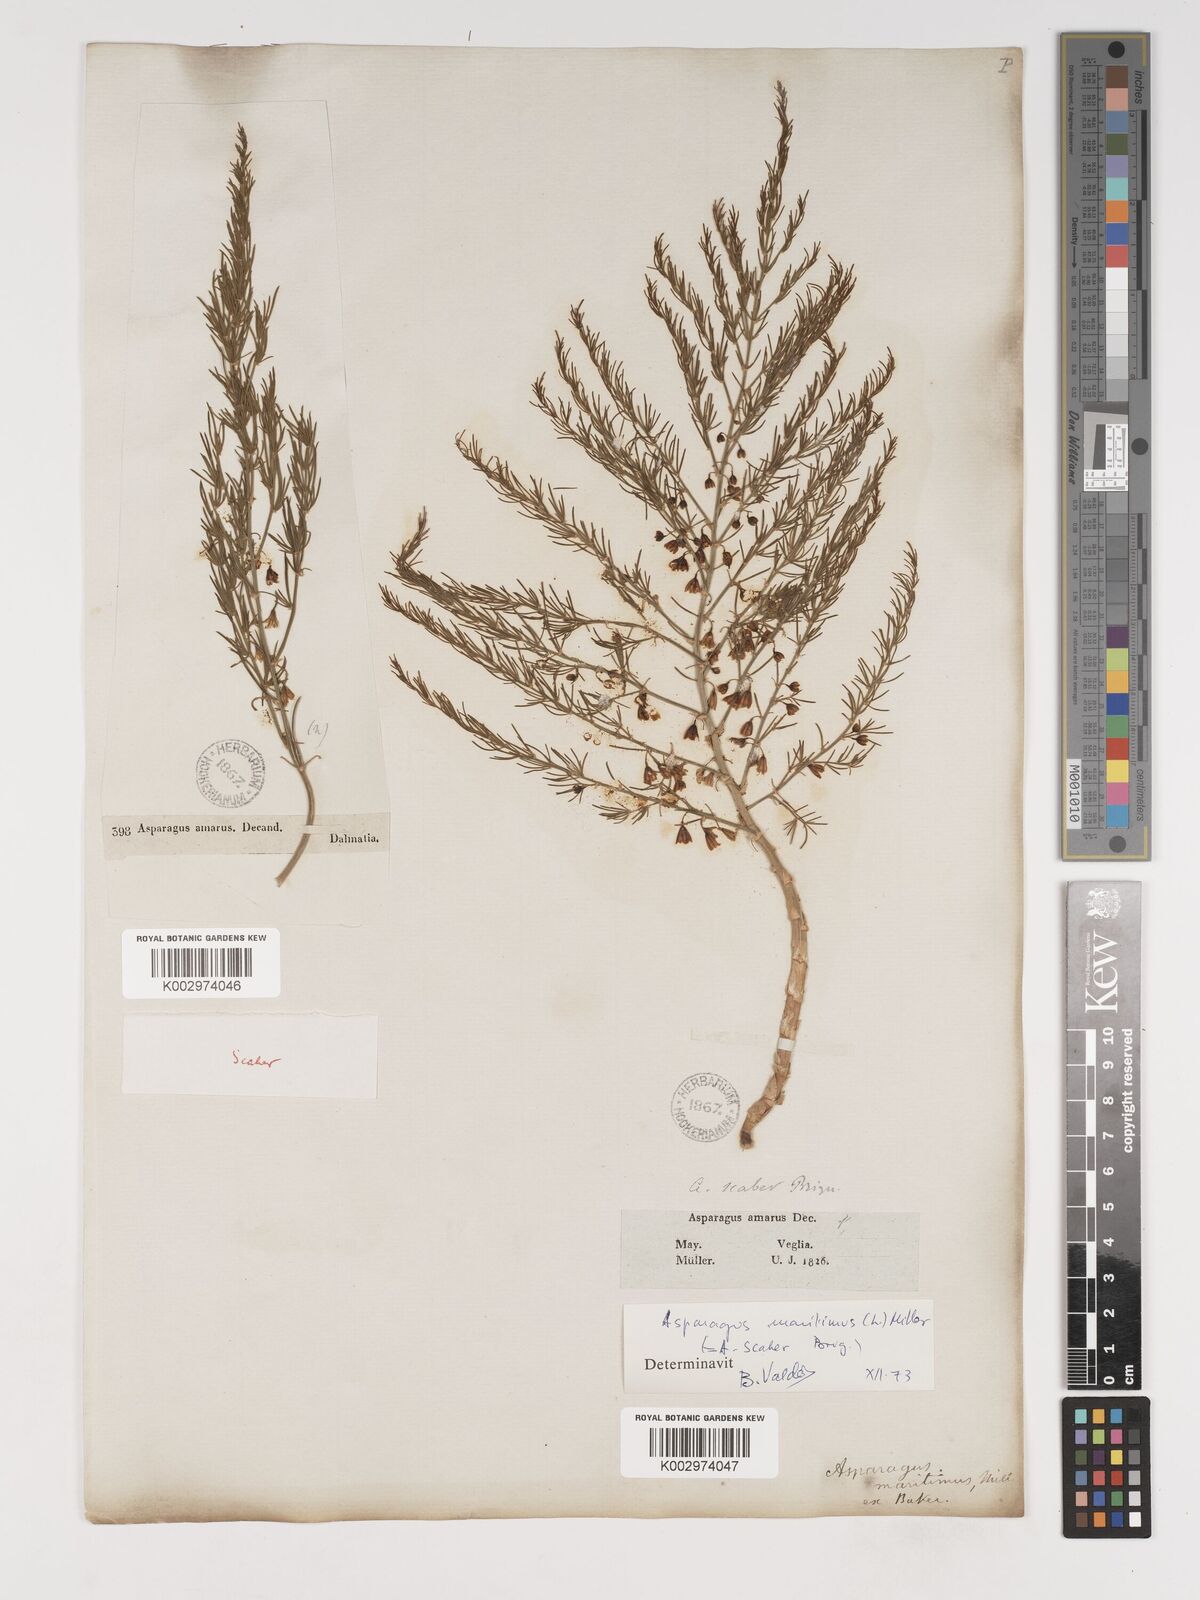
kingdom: Plantae
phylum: Tracheophyta
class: Liliopsida
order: Asparagales
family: Asparagaceae
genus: Asparagus
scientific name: Asparagus maritimus
